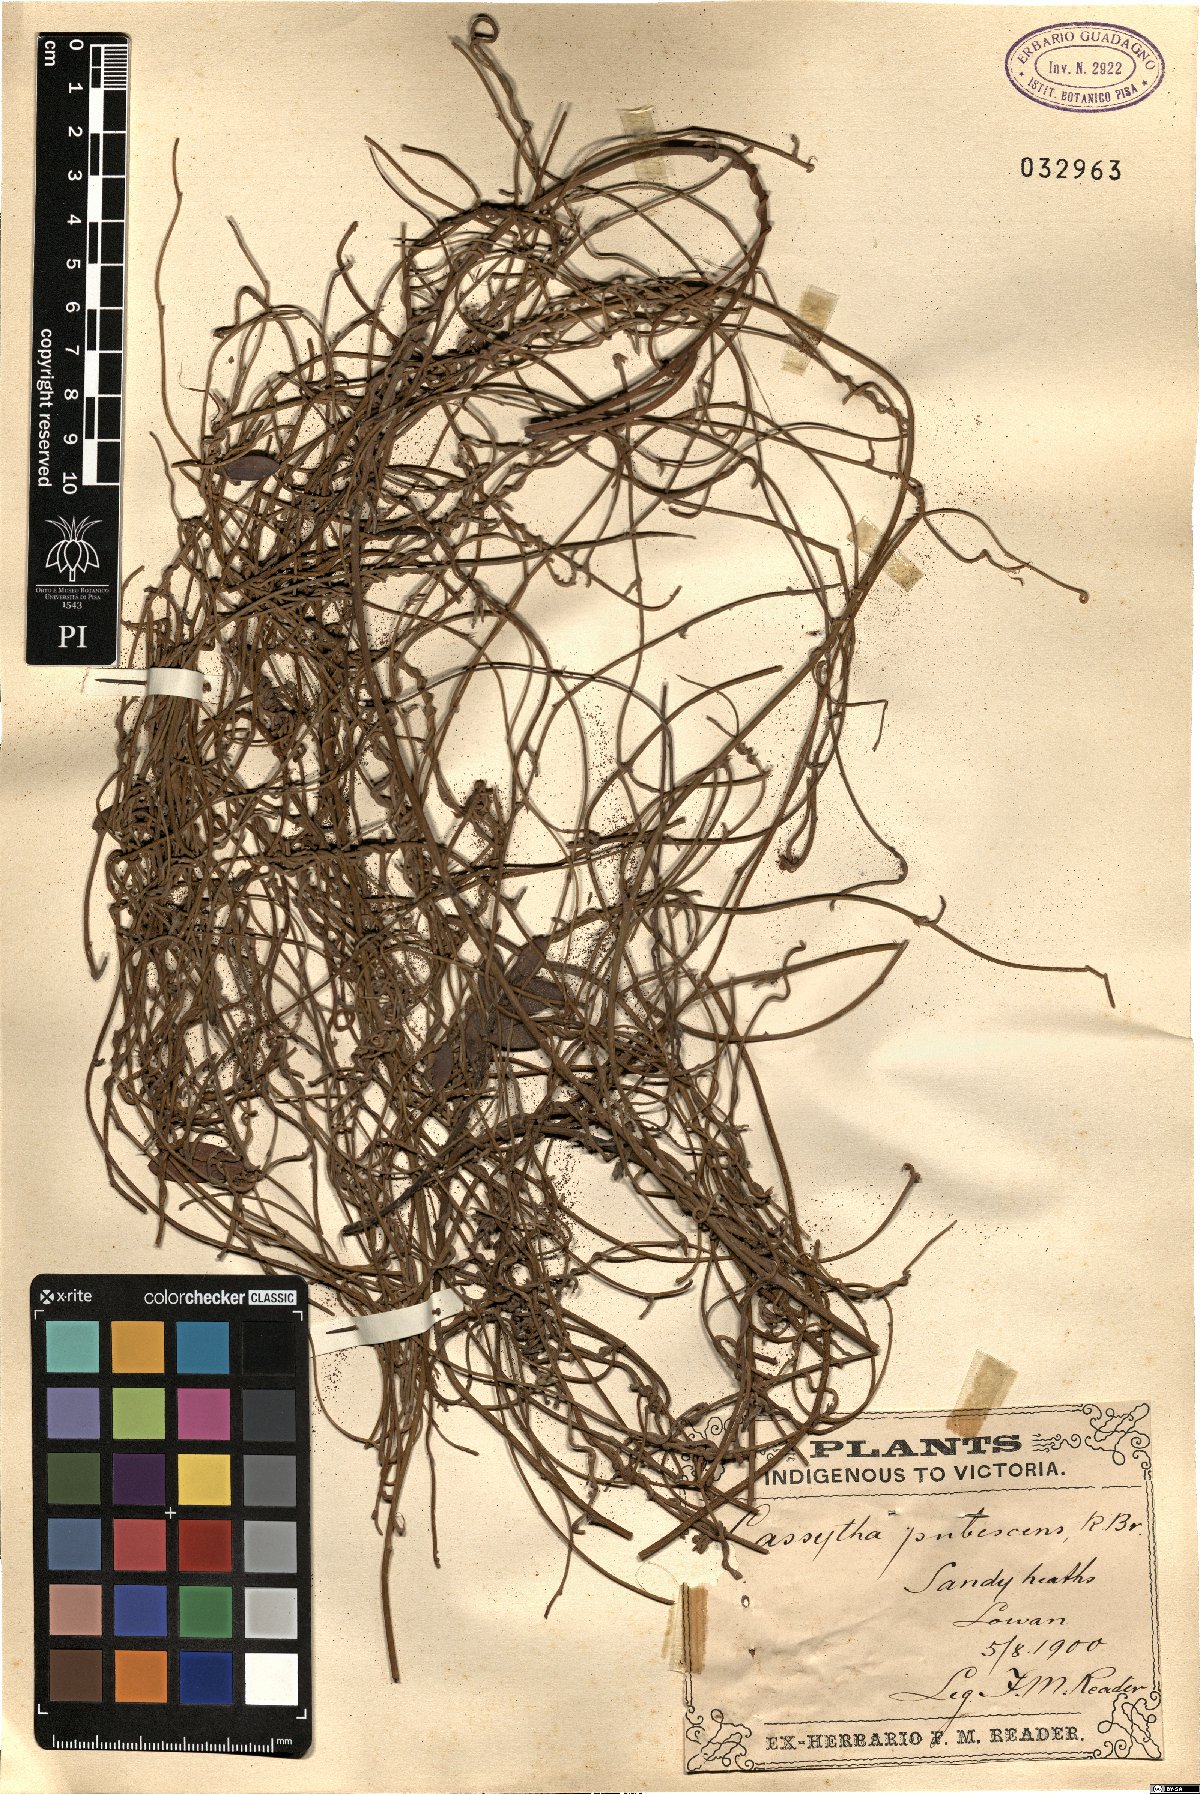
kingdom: Plantae
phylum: Tracheophyta
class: Magnoliopsida
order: Laurales
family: Lauraceae
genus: Cassytha
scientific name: Cassytha pubescens
